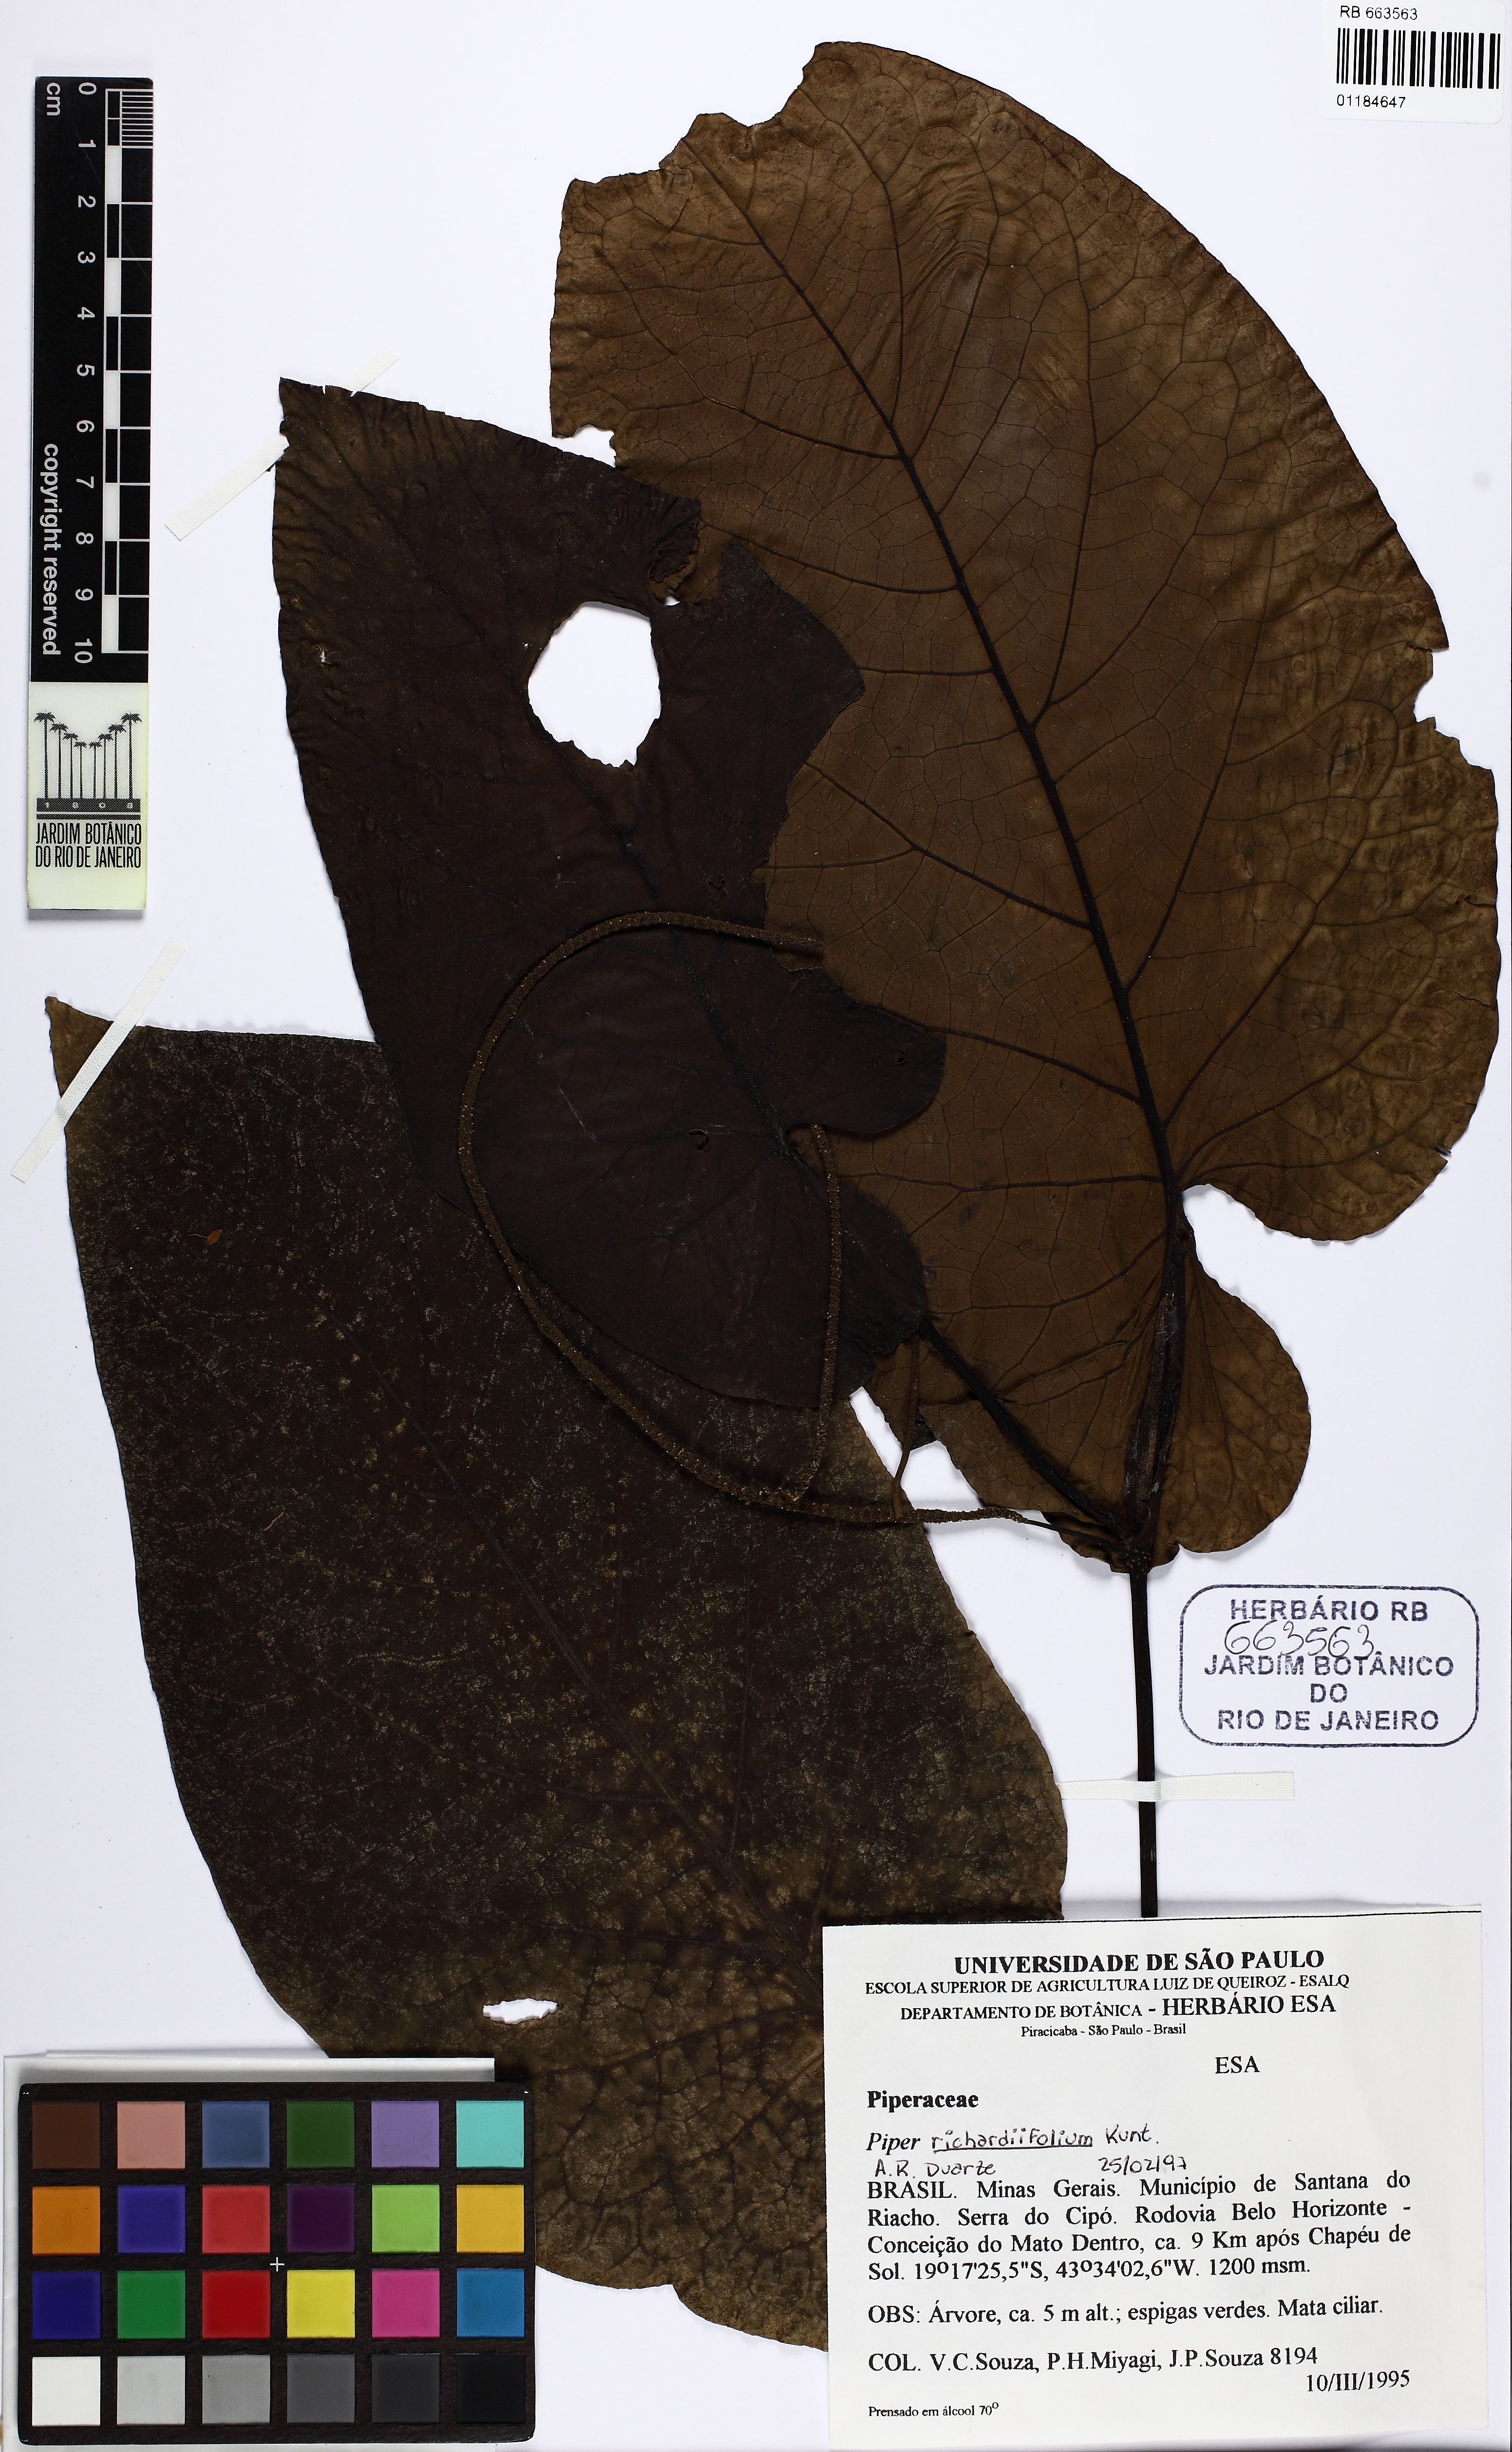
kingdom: Plantae
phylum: Tracheophyta
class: Magnoliopsida
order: Piperales
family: Piperaceae
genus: Piper
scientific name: Piper richardiifolium
